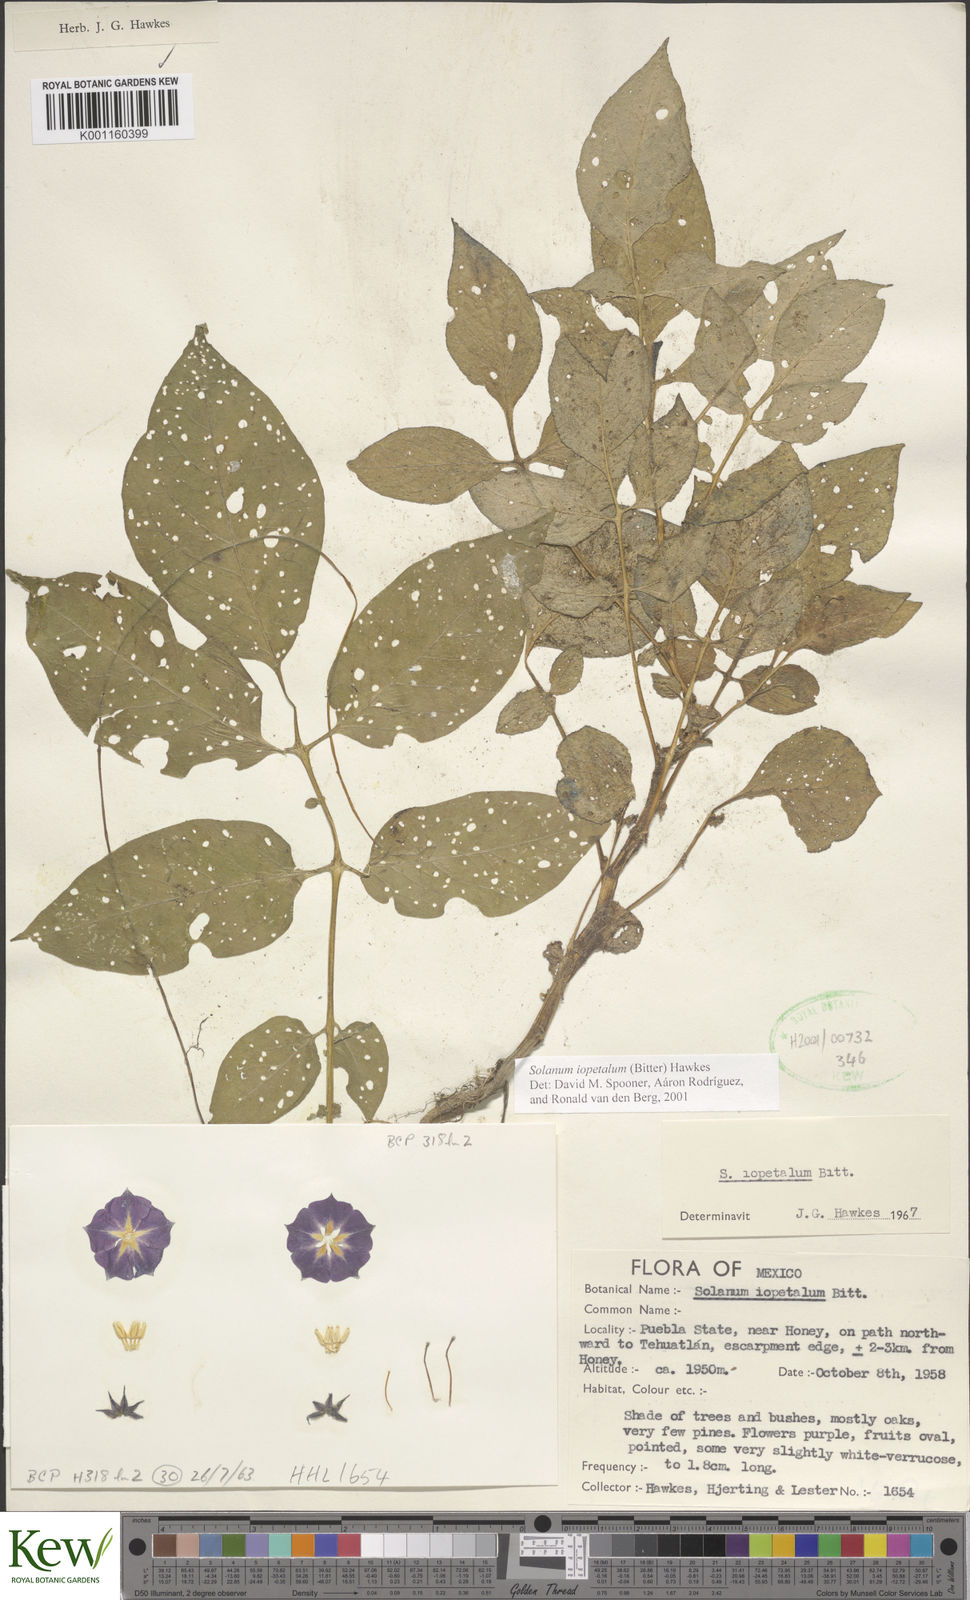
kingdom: Plantae
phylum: Tracheophyta
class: Magnoliopsida
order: Solanales
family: Solanaceae
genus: Solanum
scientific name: Solanum iopetalum
